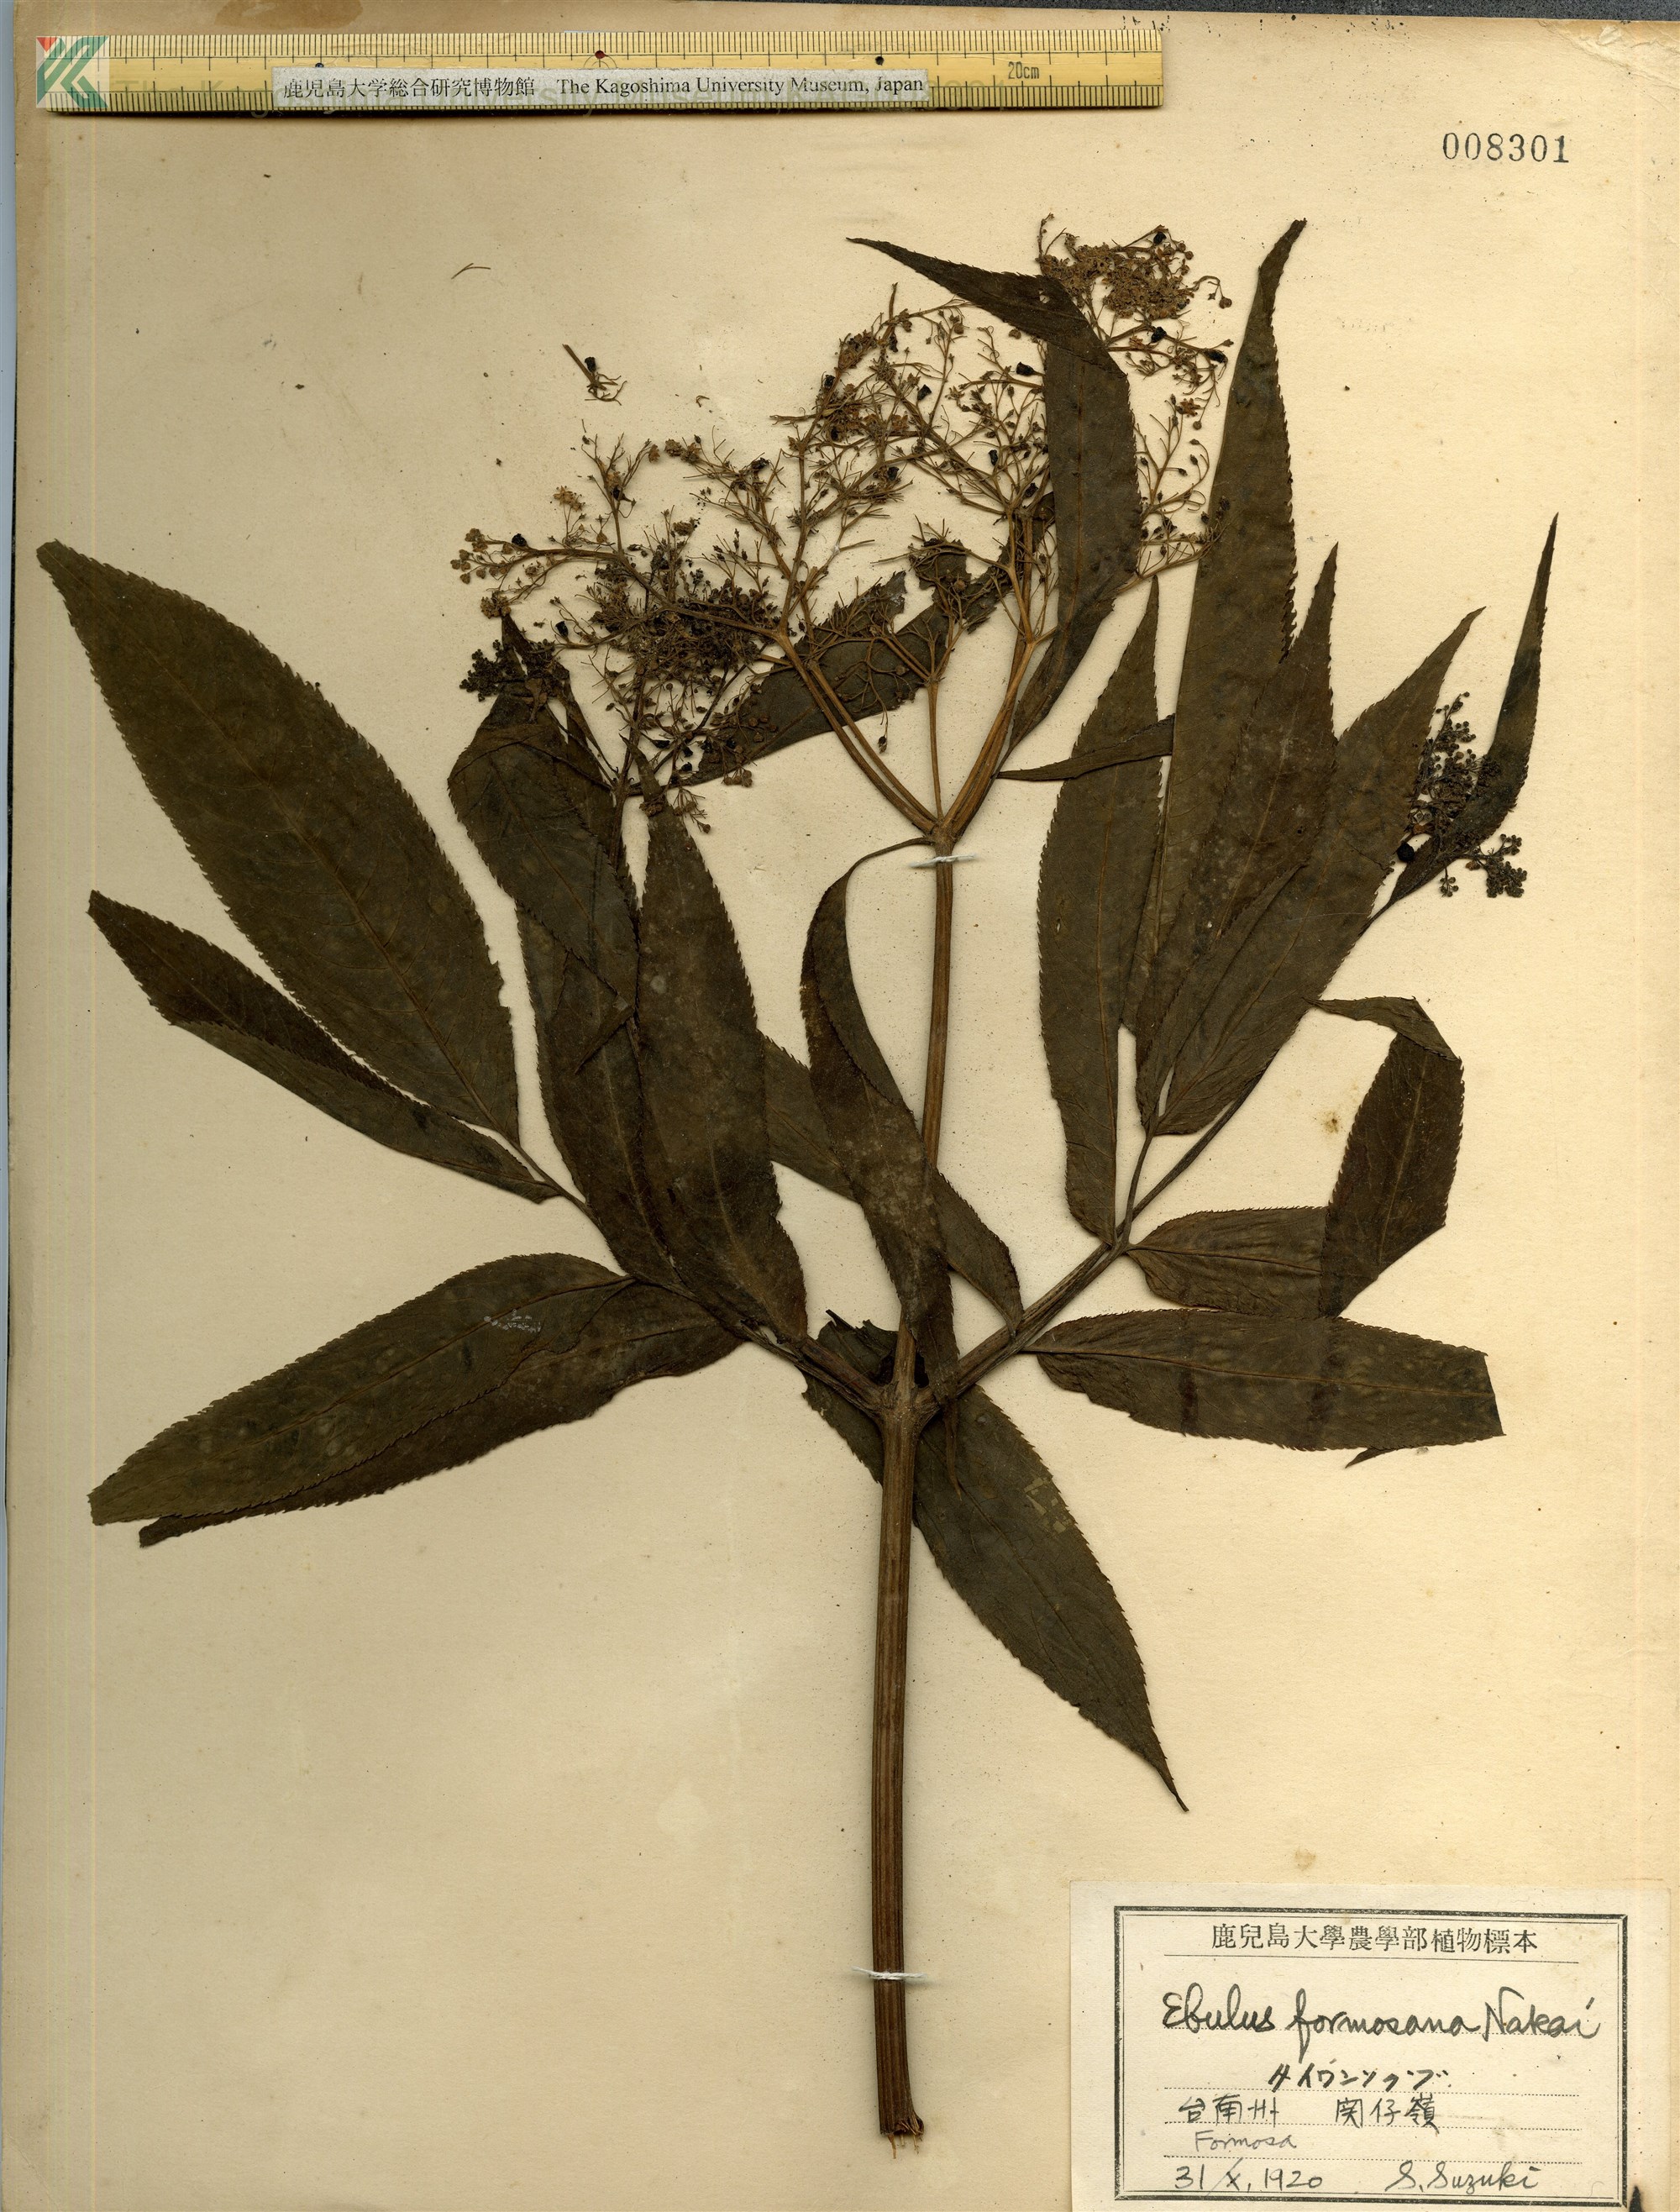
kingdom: Plantae
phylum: Tracheophyta
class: Magnoliopsida
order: Dipsacales
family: Viburnaceae
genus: Sambucus
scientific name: Sambucus javanica
